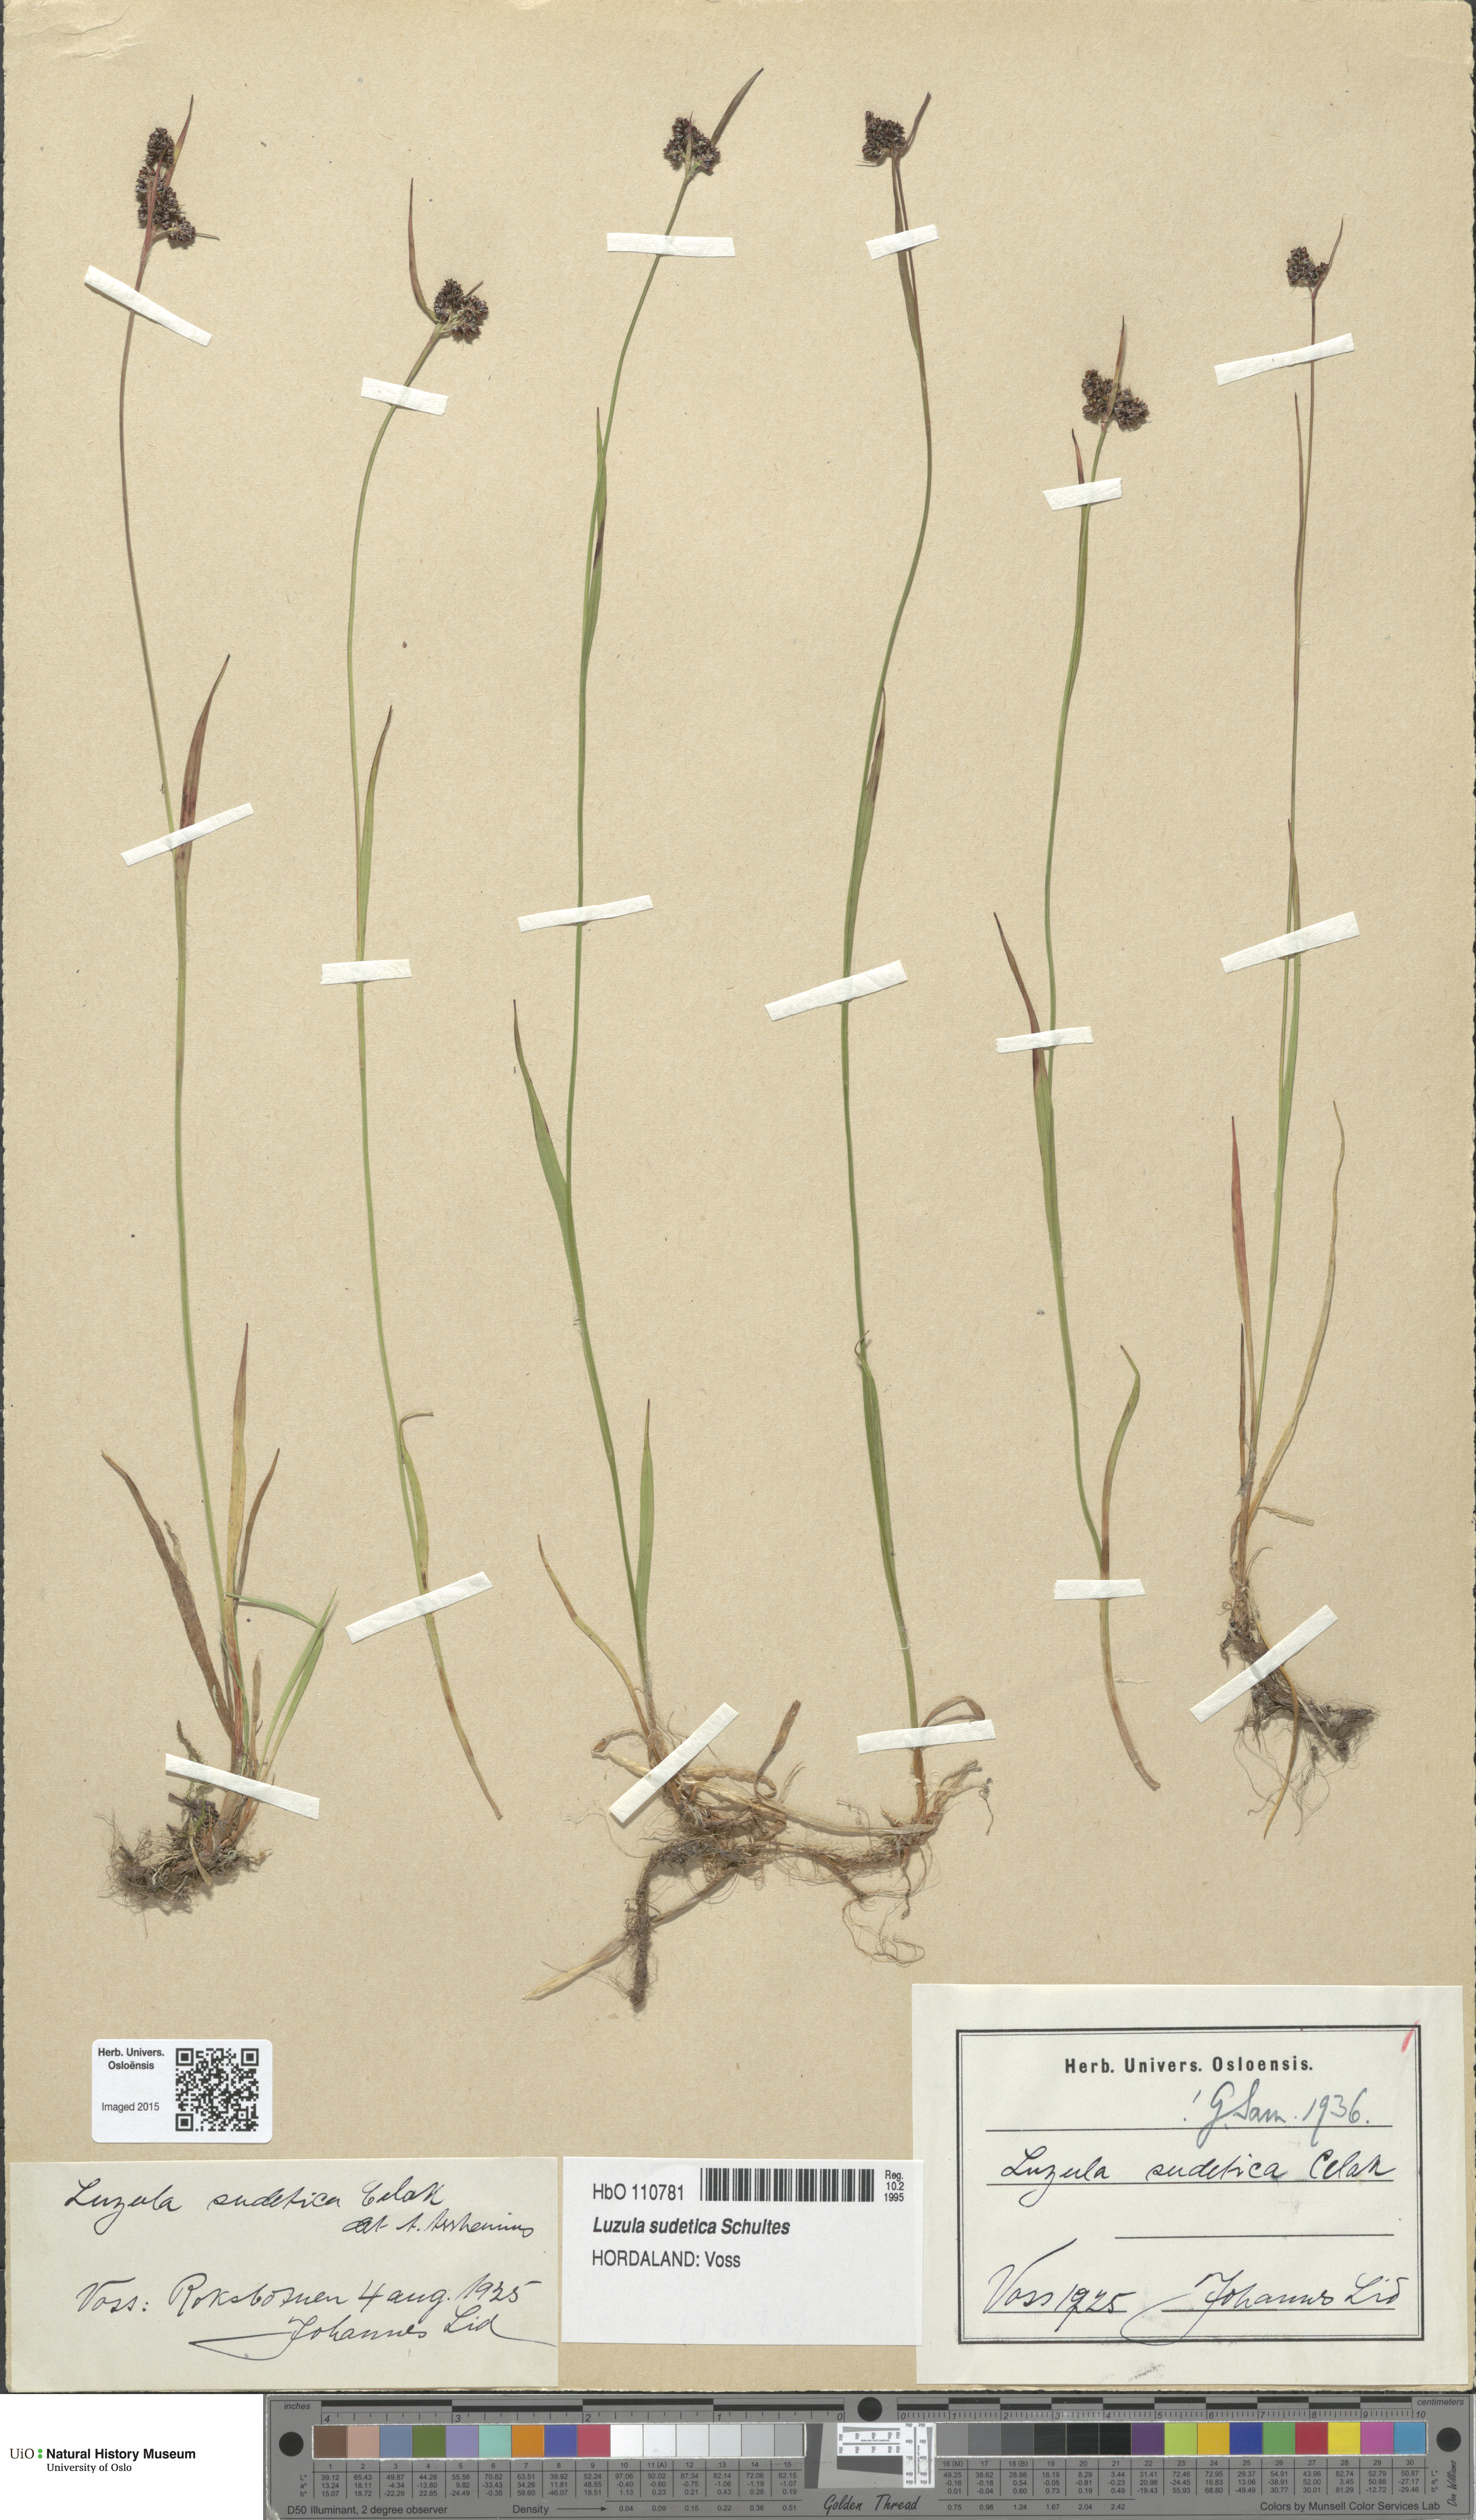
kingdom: Plantae
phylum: Tracheophyta
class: Liliopsida
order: Poales
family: Juncaceae
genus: Luzula
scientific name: Luzula sudetica
